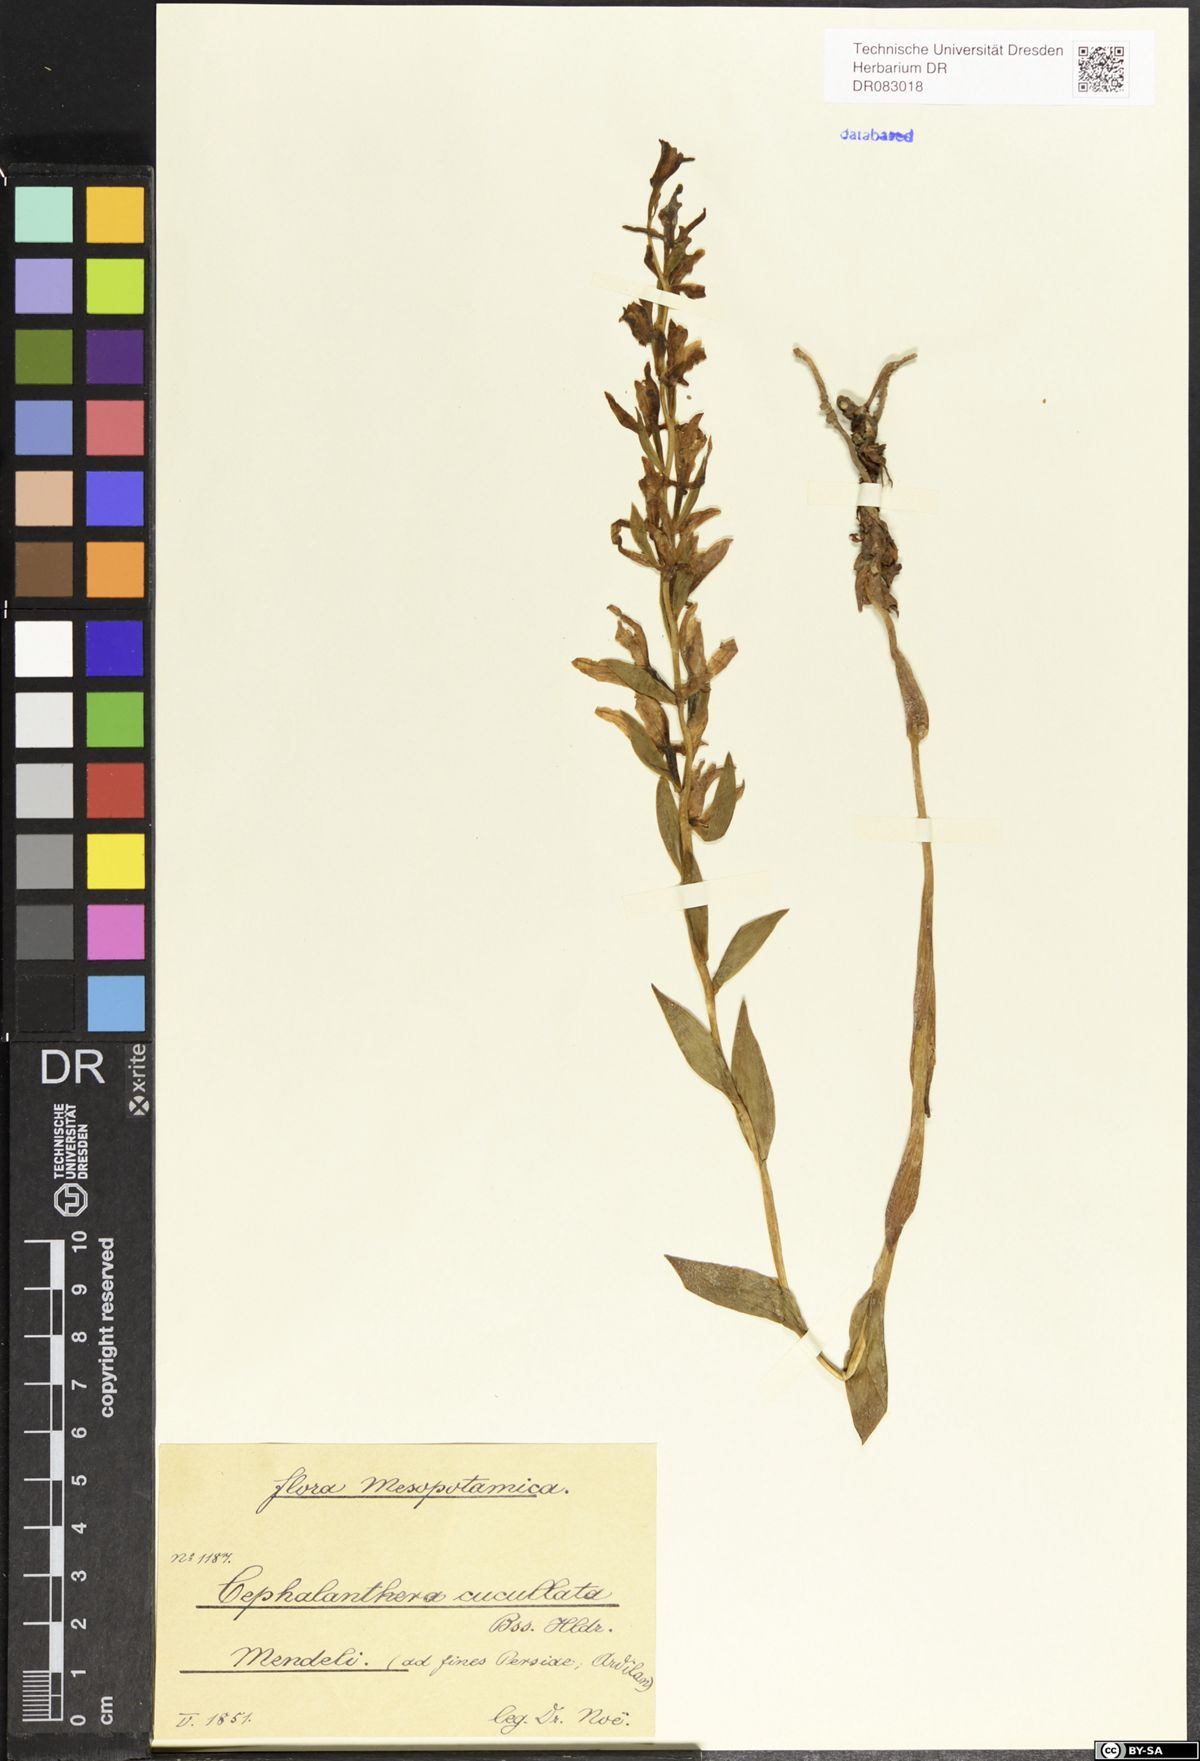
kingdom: Plantae
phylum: Tracheophyta
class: Liliopsida
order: Asparagales
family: Orchidaceae
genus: Cephalanthera
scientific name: Cephalanthera cucullata
